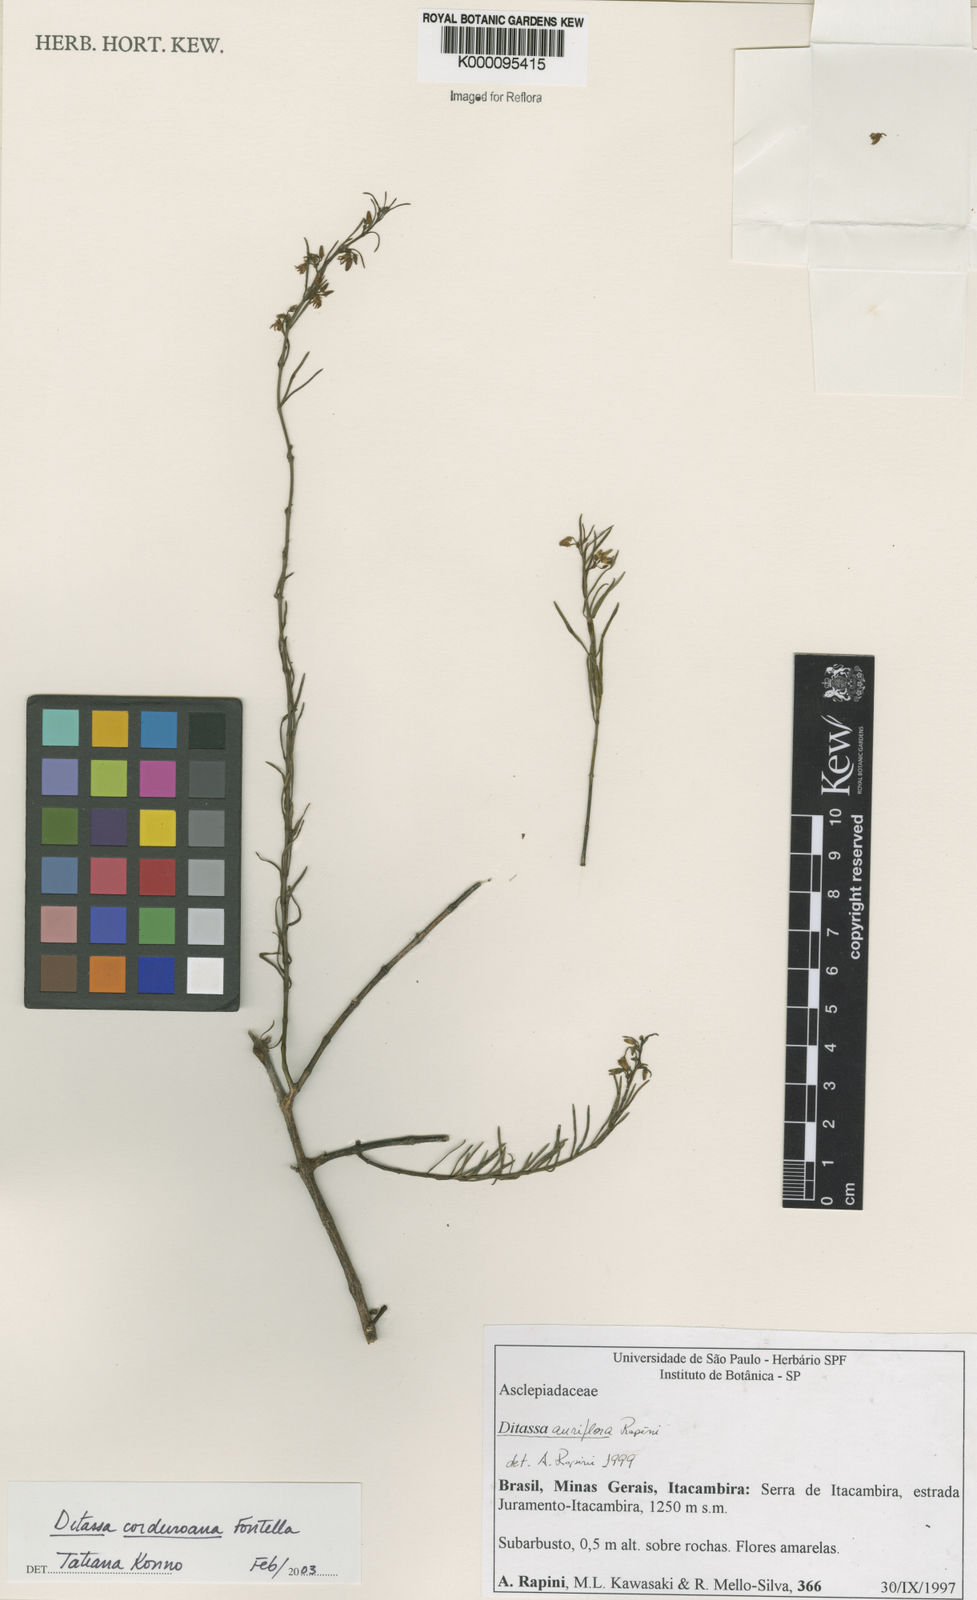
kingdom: Plantae
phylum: Tracheophyta
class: Magnoliopsida
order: Gentianales
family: Apocynaceae
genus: Ditassa
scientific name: Ditassa cordeiroana
